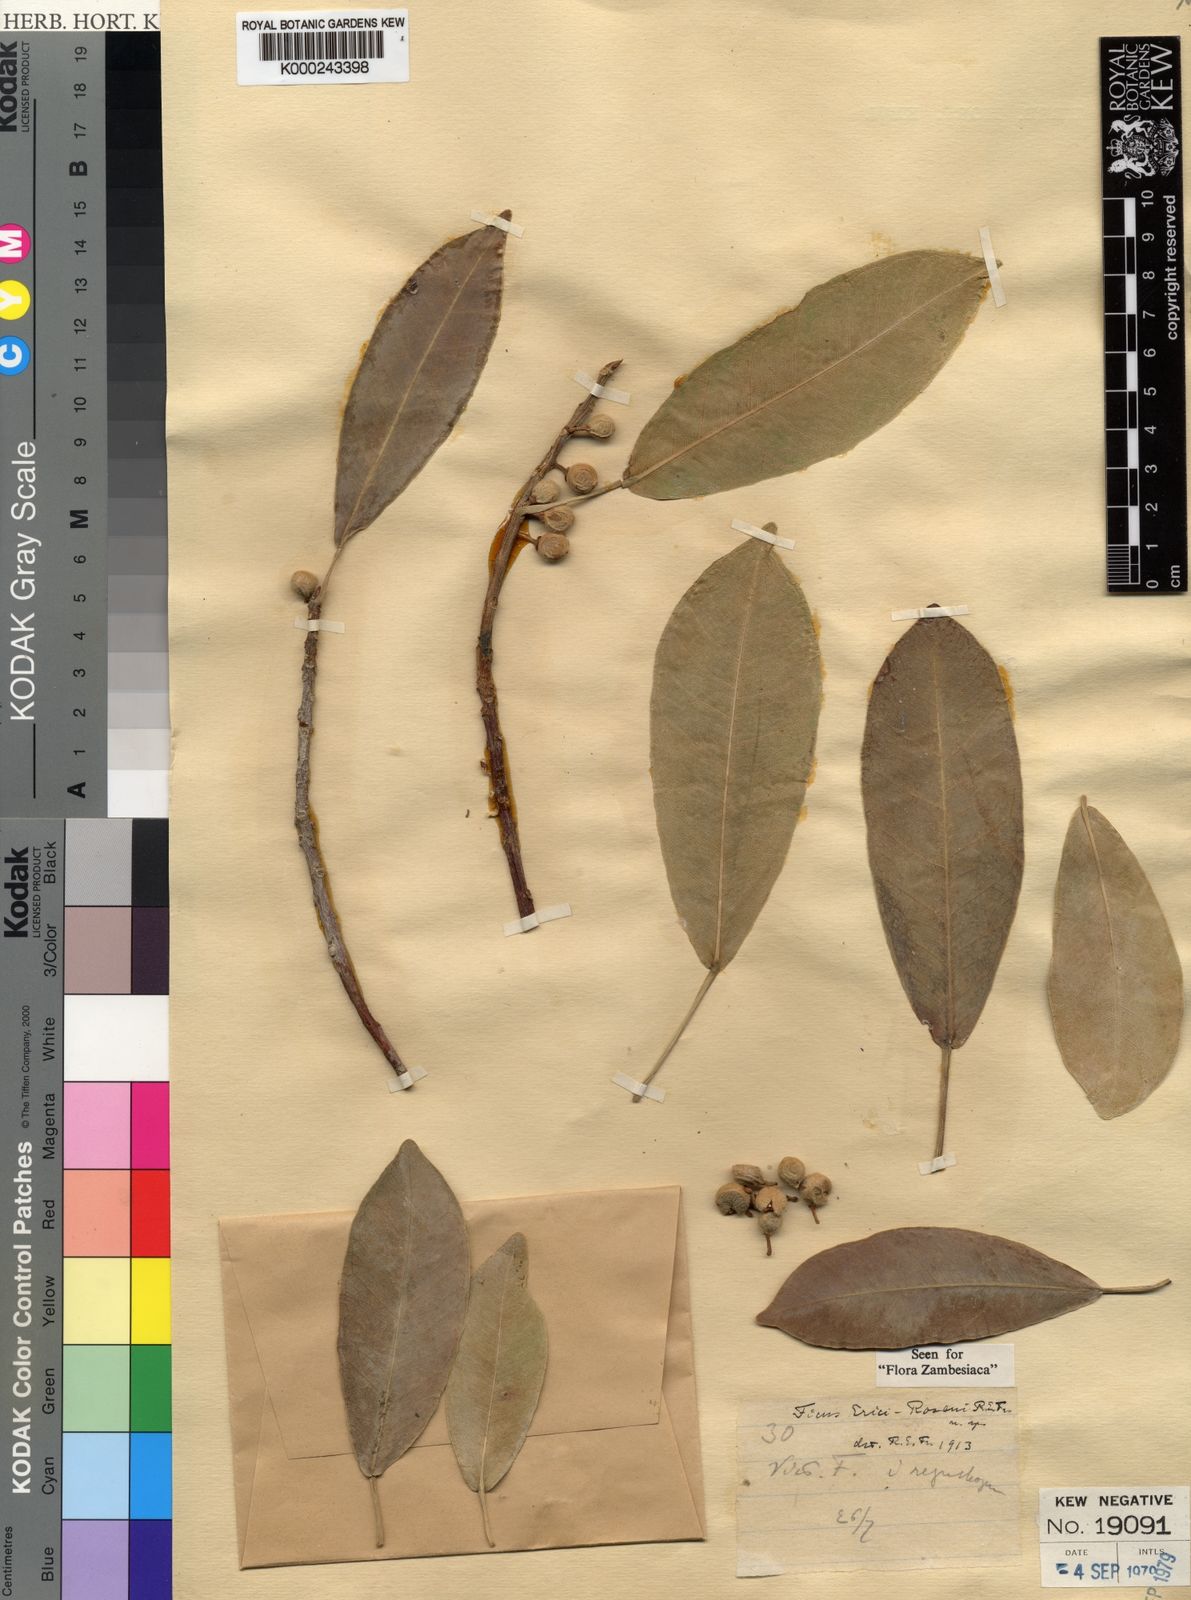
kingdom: Plantae
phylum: Tracheophyta
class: Magnoliopsida
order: Rosales
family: Moraceae
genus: Ficus
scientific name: Ficus thonningii
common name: Fig
